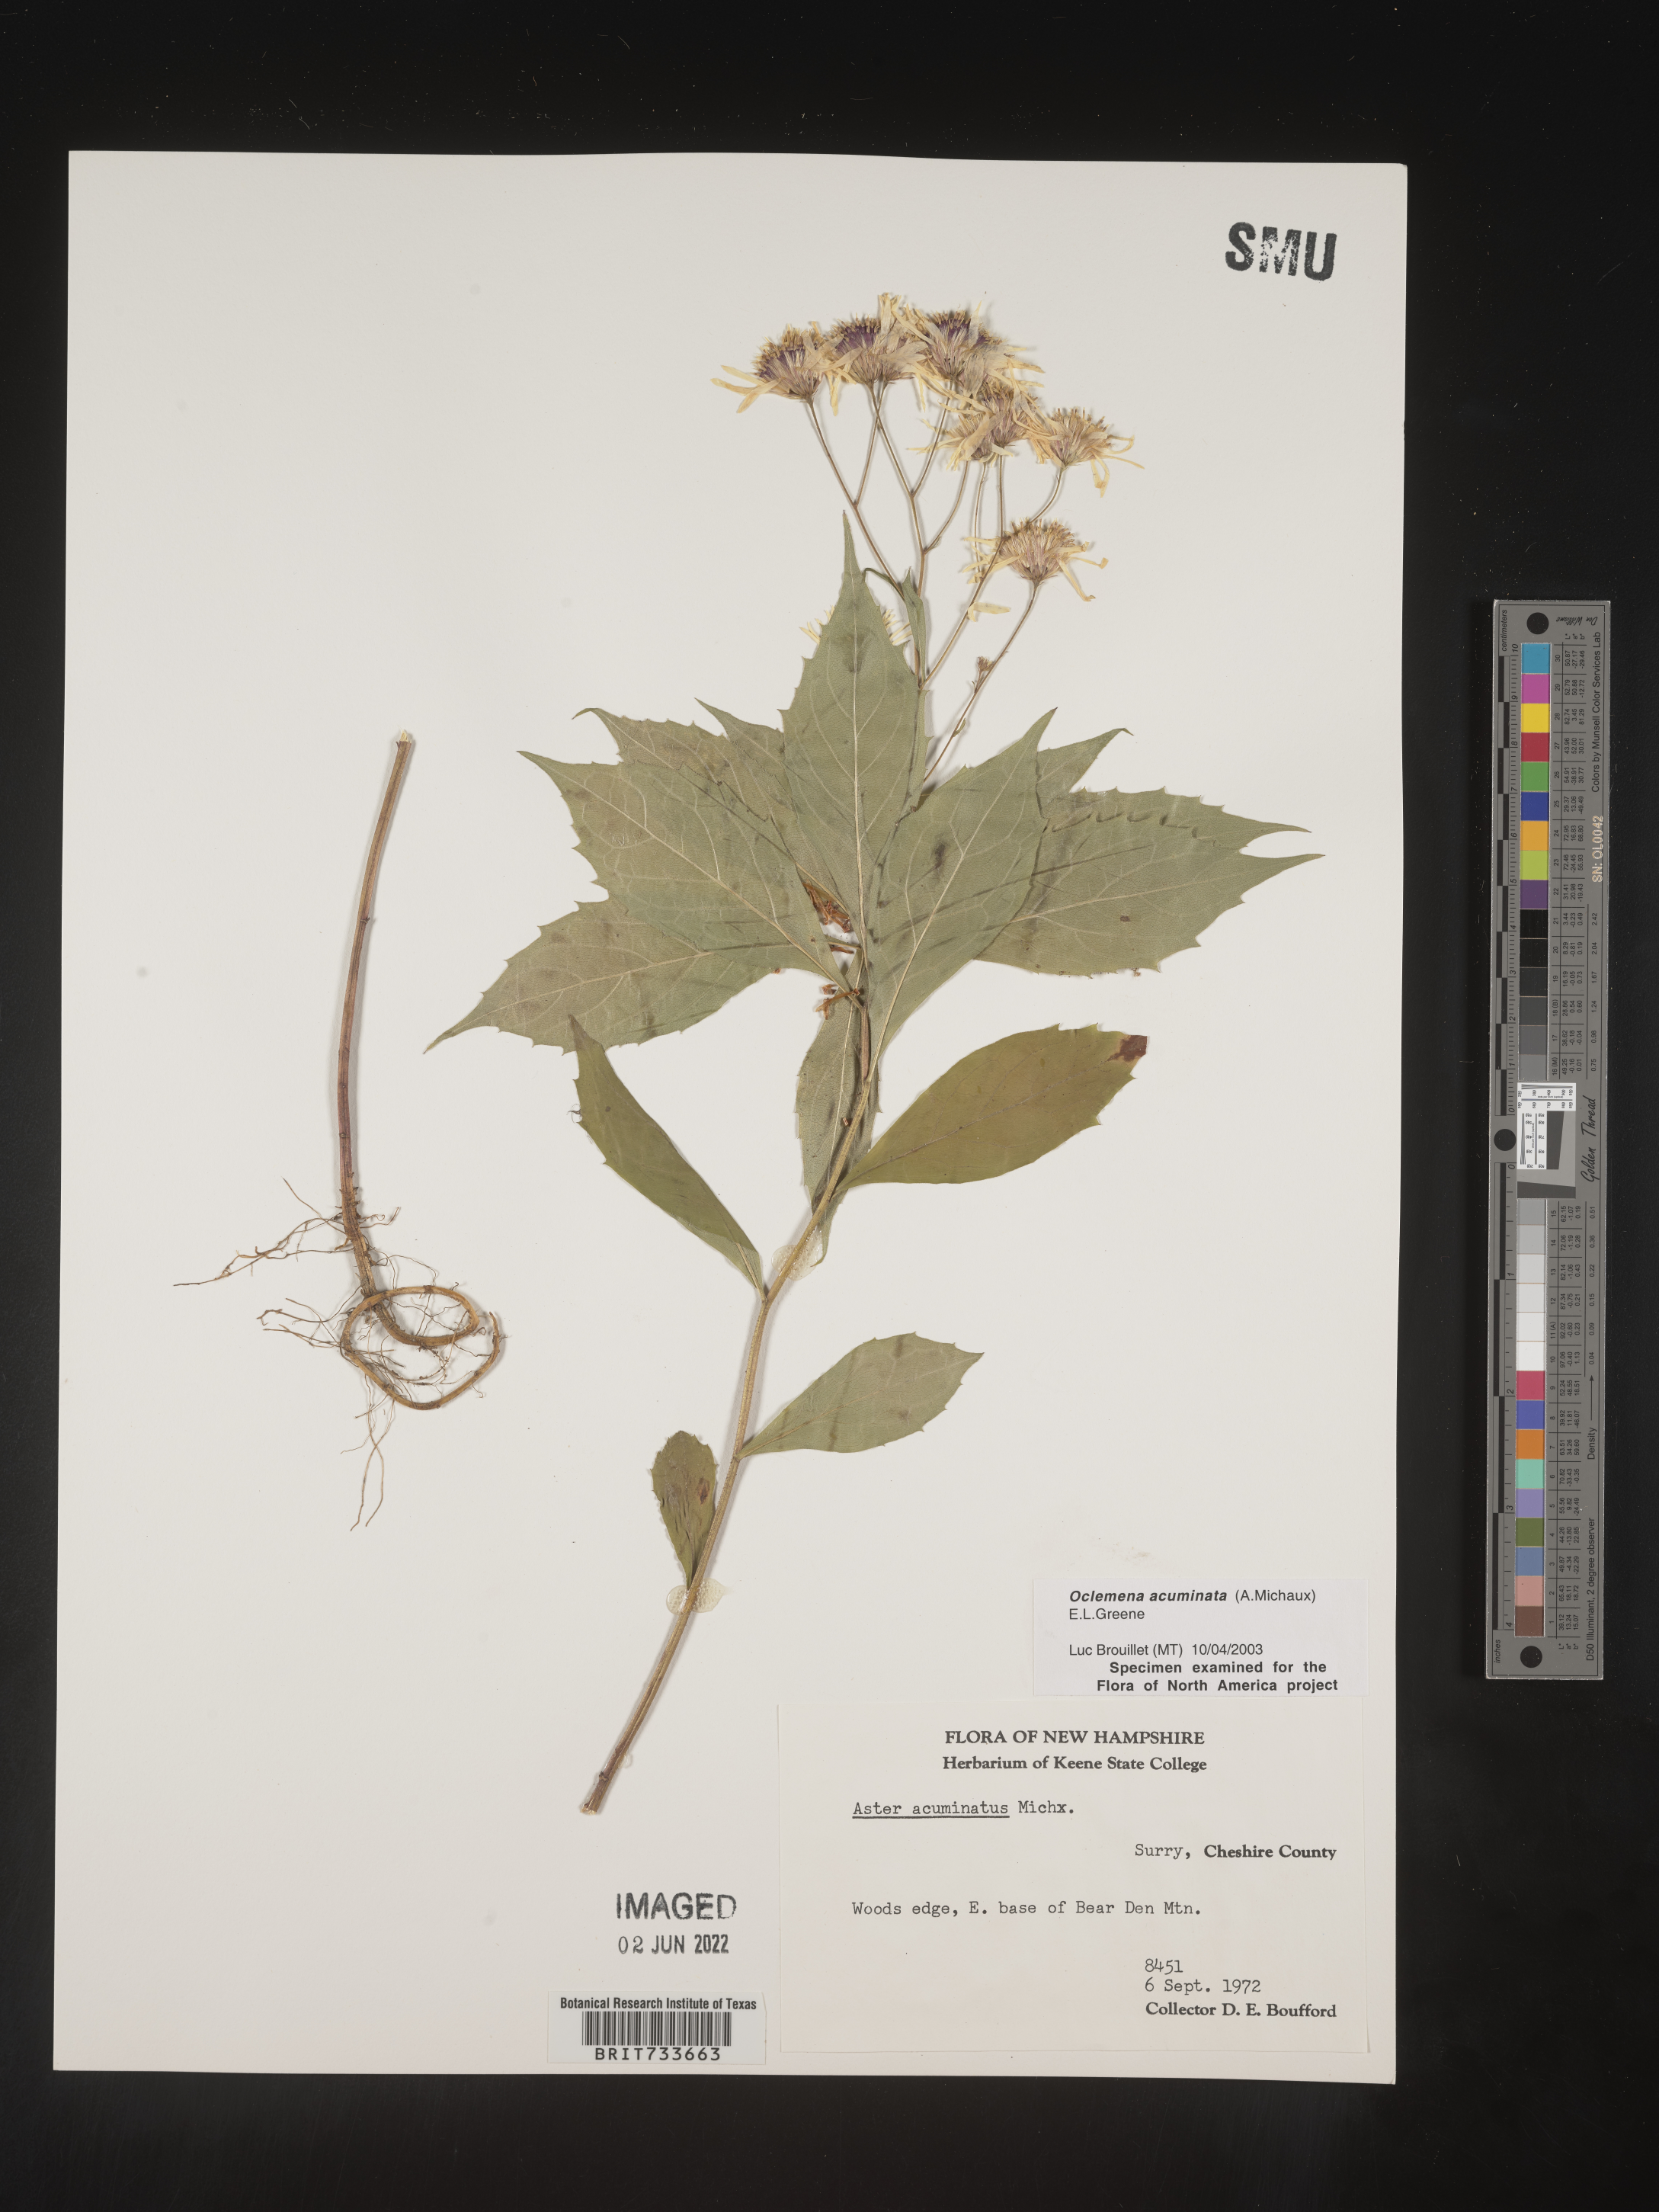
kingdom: Plantae
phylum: Tracheophyta
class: Magnoliopsida
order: Asterales
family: Asteraceae
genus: Oclemena
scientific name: Oclemena acuminata
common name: Mountain aster
